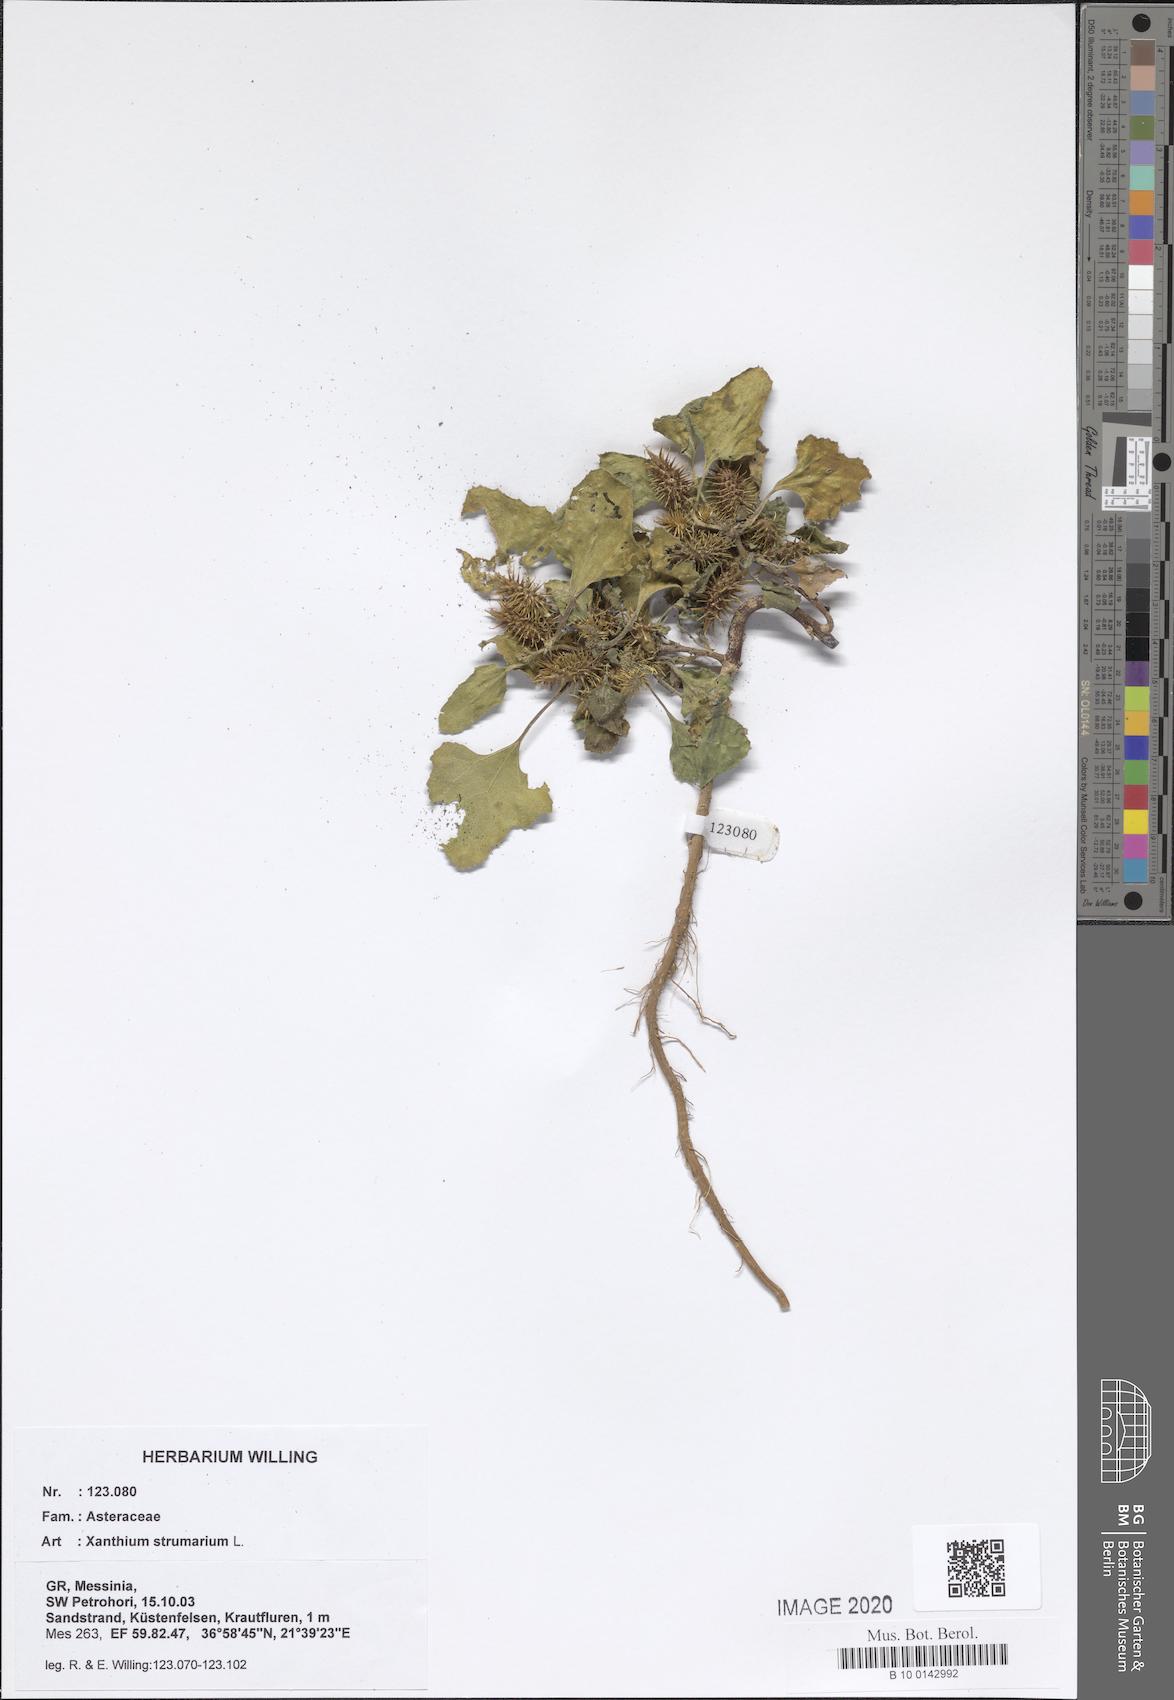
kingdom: Plantae
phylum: Tracheophyta
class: Magnoliopsida
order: Asterales
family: Asteraceae
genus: Xanthium
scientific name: Xanthium strumarium
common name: Rough cocklebur
